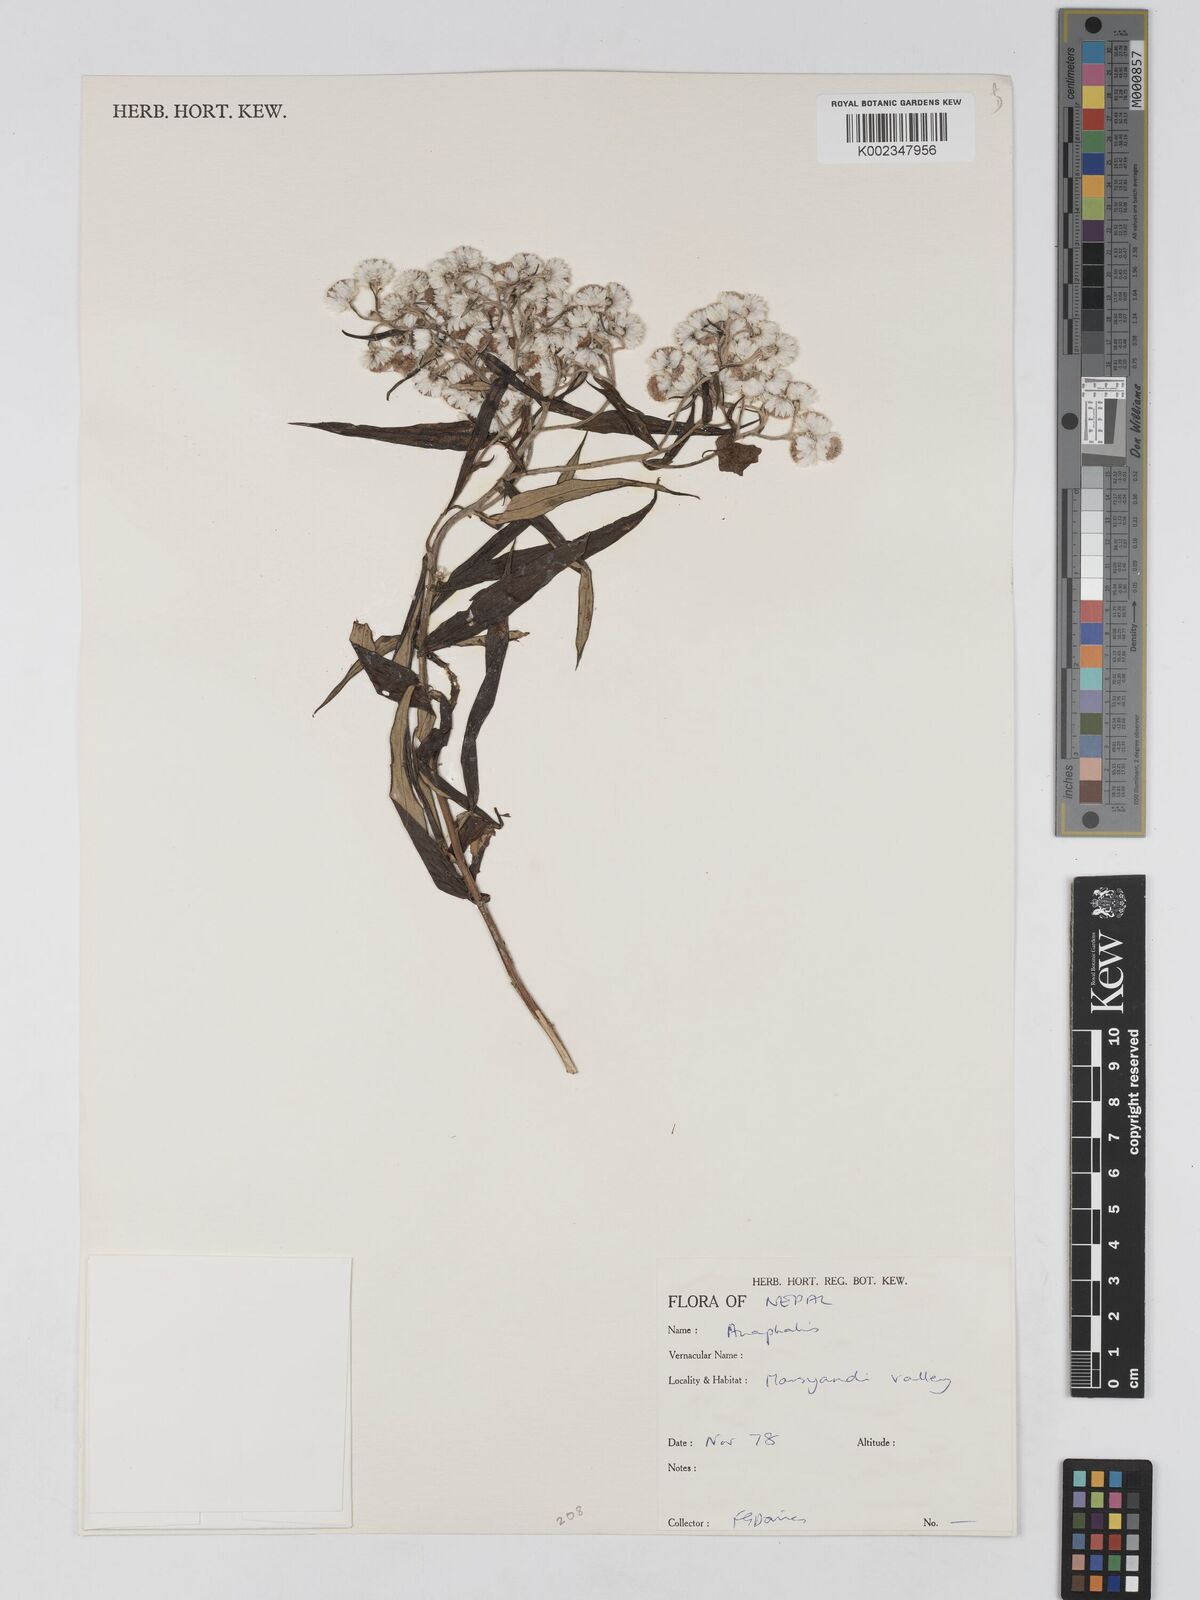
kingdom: Plantae
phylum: Tracheophyta
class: Magnoliopsida
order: Asterales
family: Asteraceae
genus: Anaphalis
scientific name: Anaphalis
